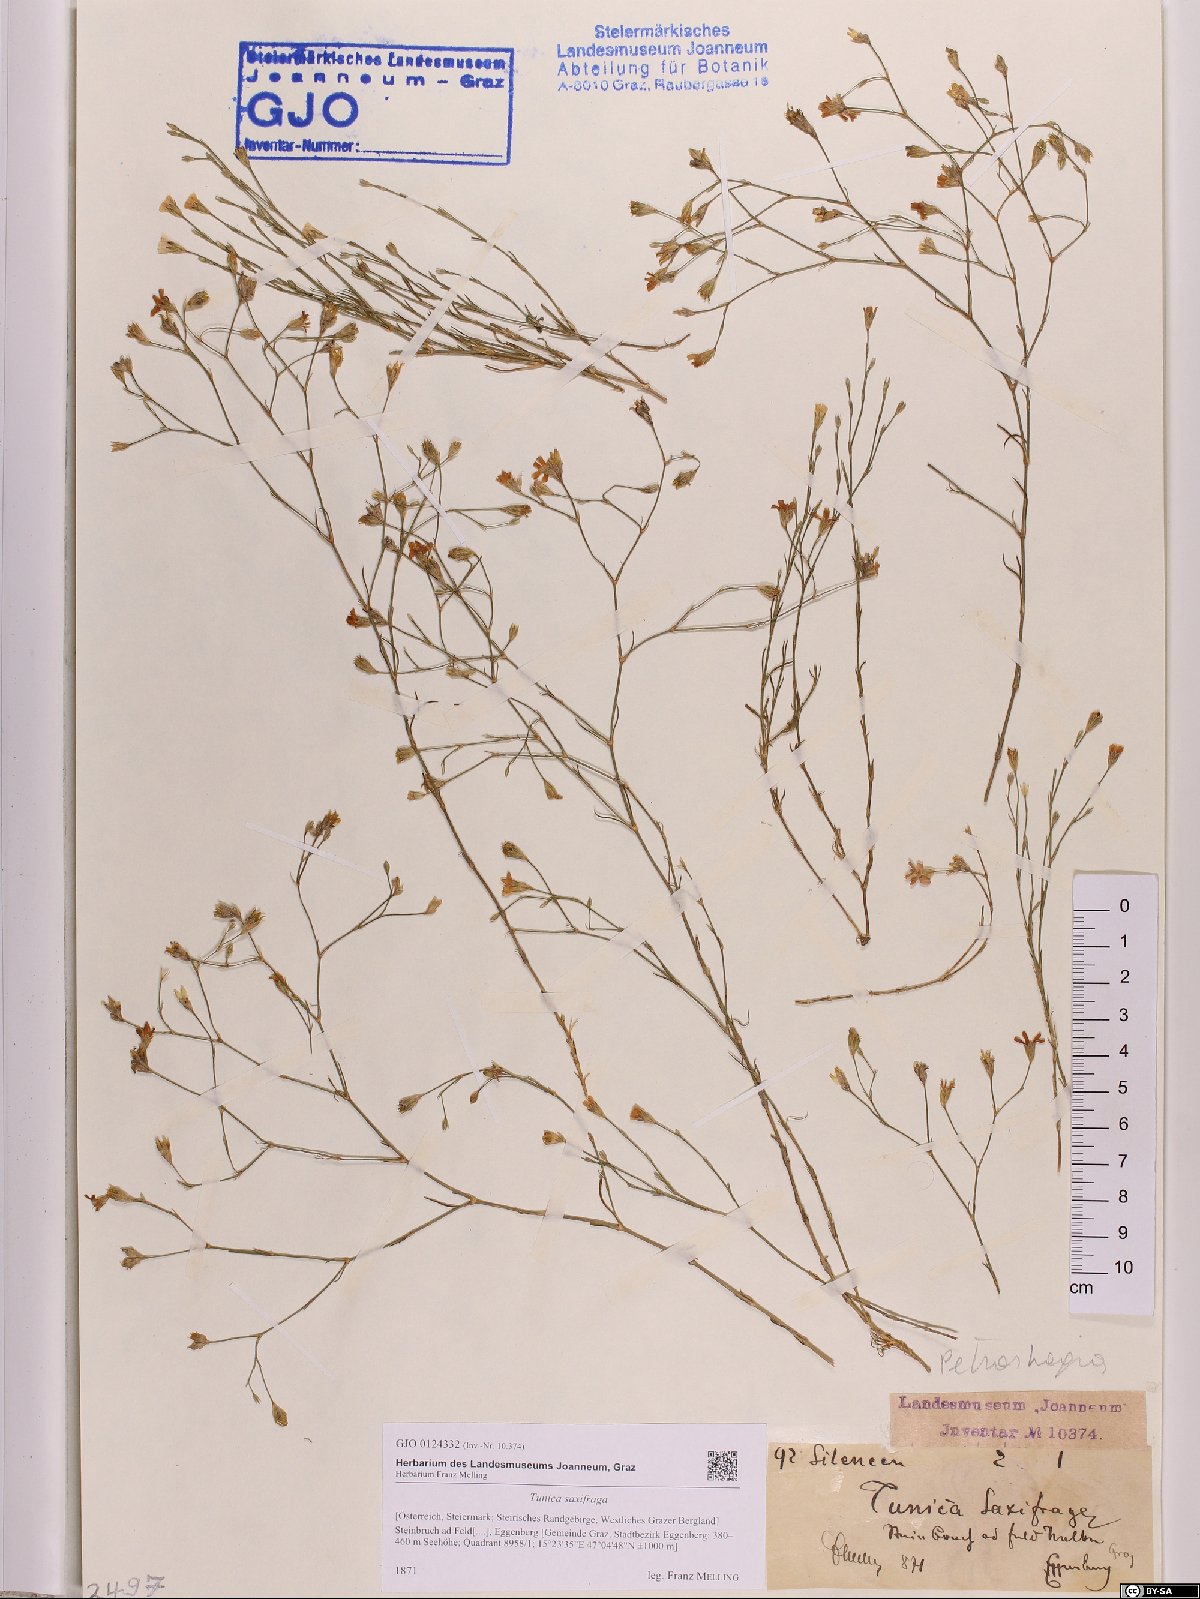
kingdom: Plantae
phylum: Tracheophyta
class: Magnoliopsida
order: Caryophyllales
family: Caryophyllaceae
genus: Petrorhagia
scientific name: Petrorhagia saxifraga
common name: Tunicflower
